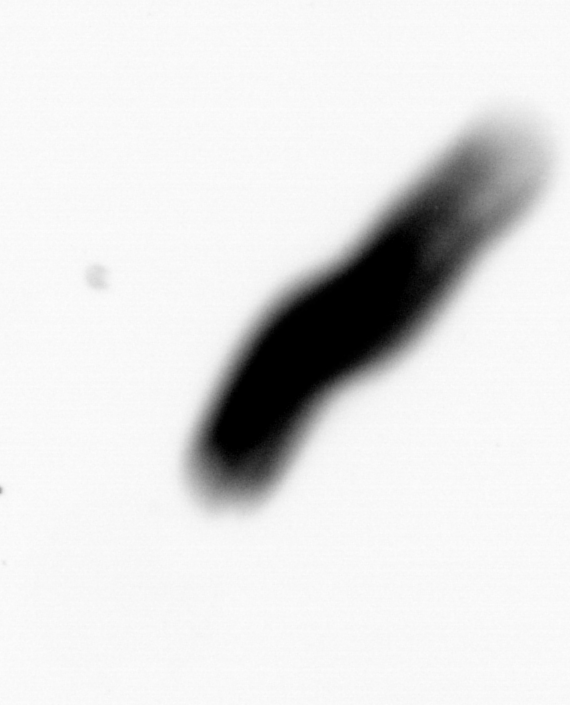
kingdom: Animalia
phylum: Annelida
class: Polychaeta
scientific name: Polychaeta
